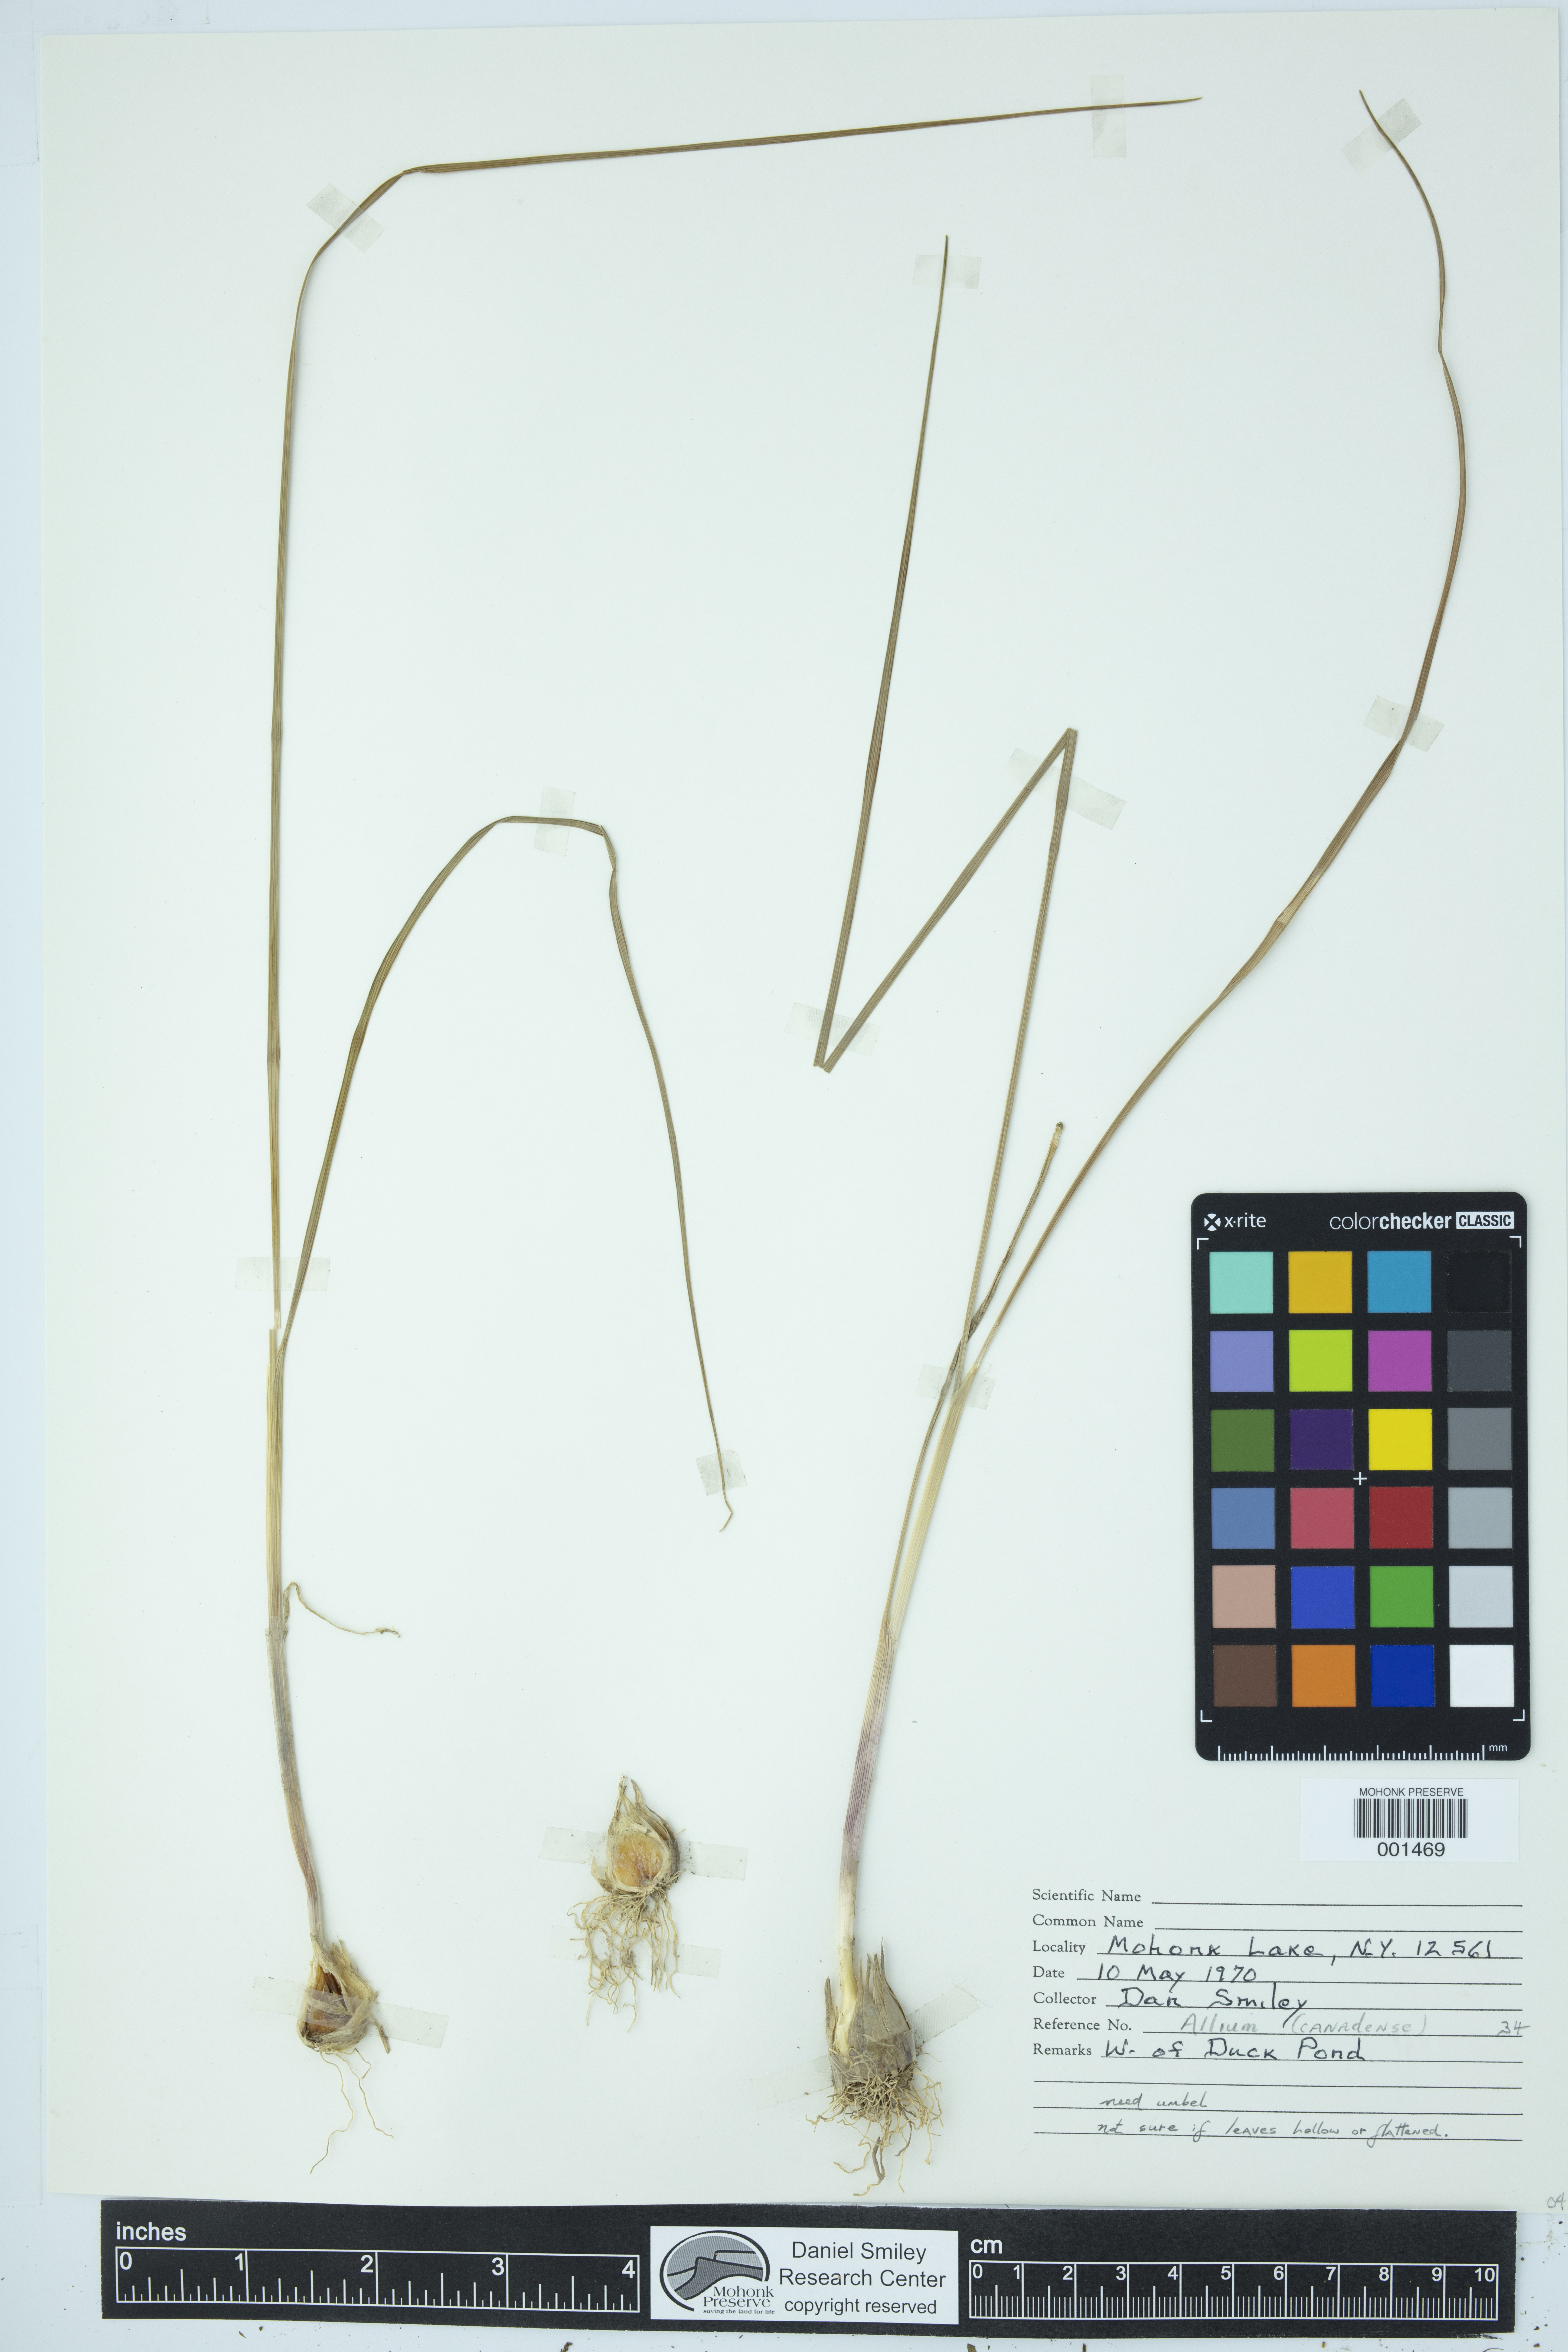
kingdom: Plantae
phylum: Tracheophyta
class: Liliopsida
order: Asparagales
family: Amaryllidaceae
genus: Allium
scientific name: Allium canadense
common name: Meadow garlic
